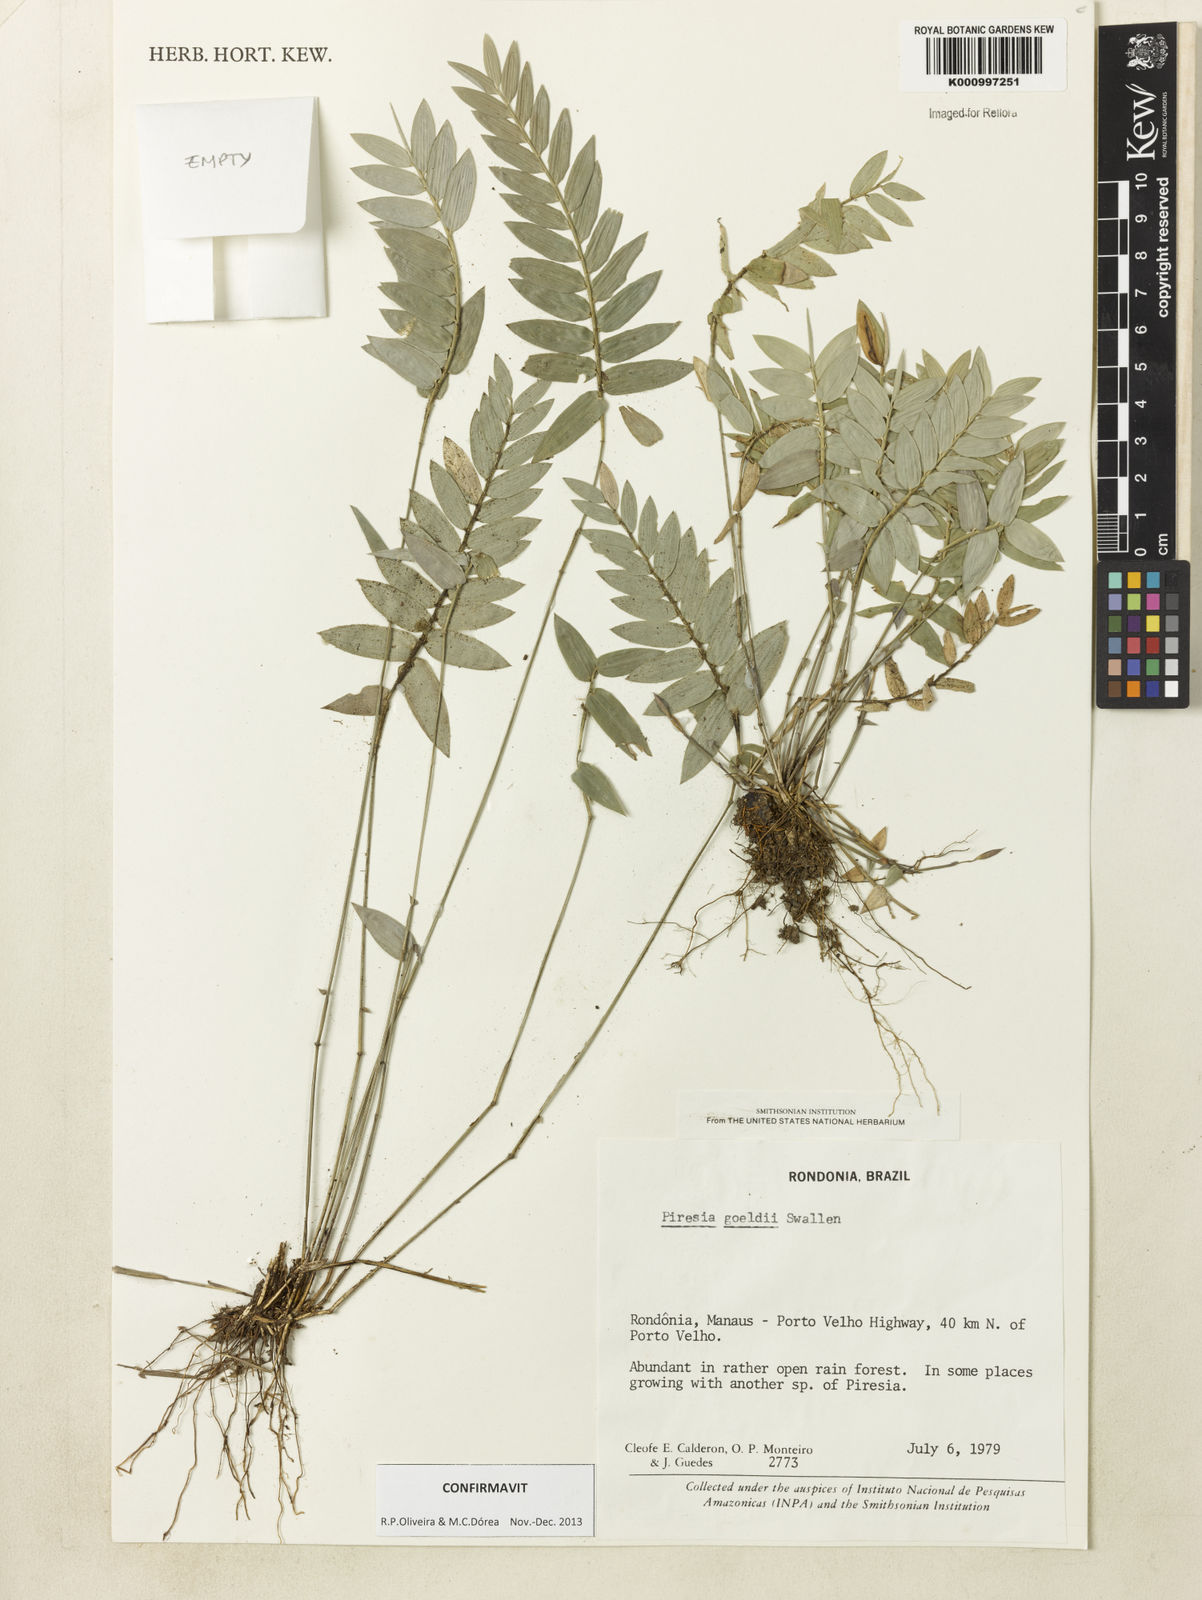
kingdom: Plantae
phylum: Tracheophyta
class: Liliopsida
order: Poales
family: Poaceae
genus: Piresia
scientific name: Piresia goeldii
